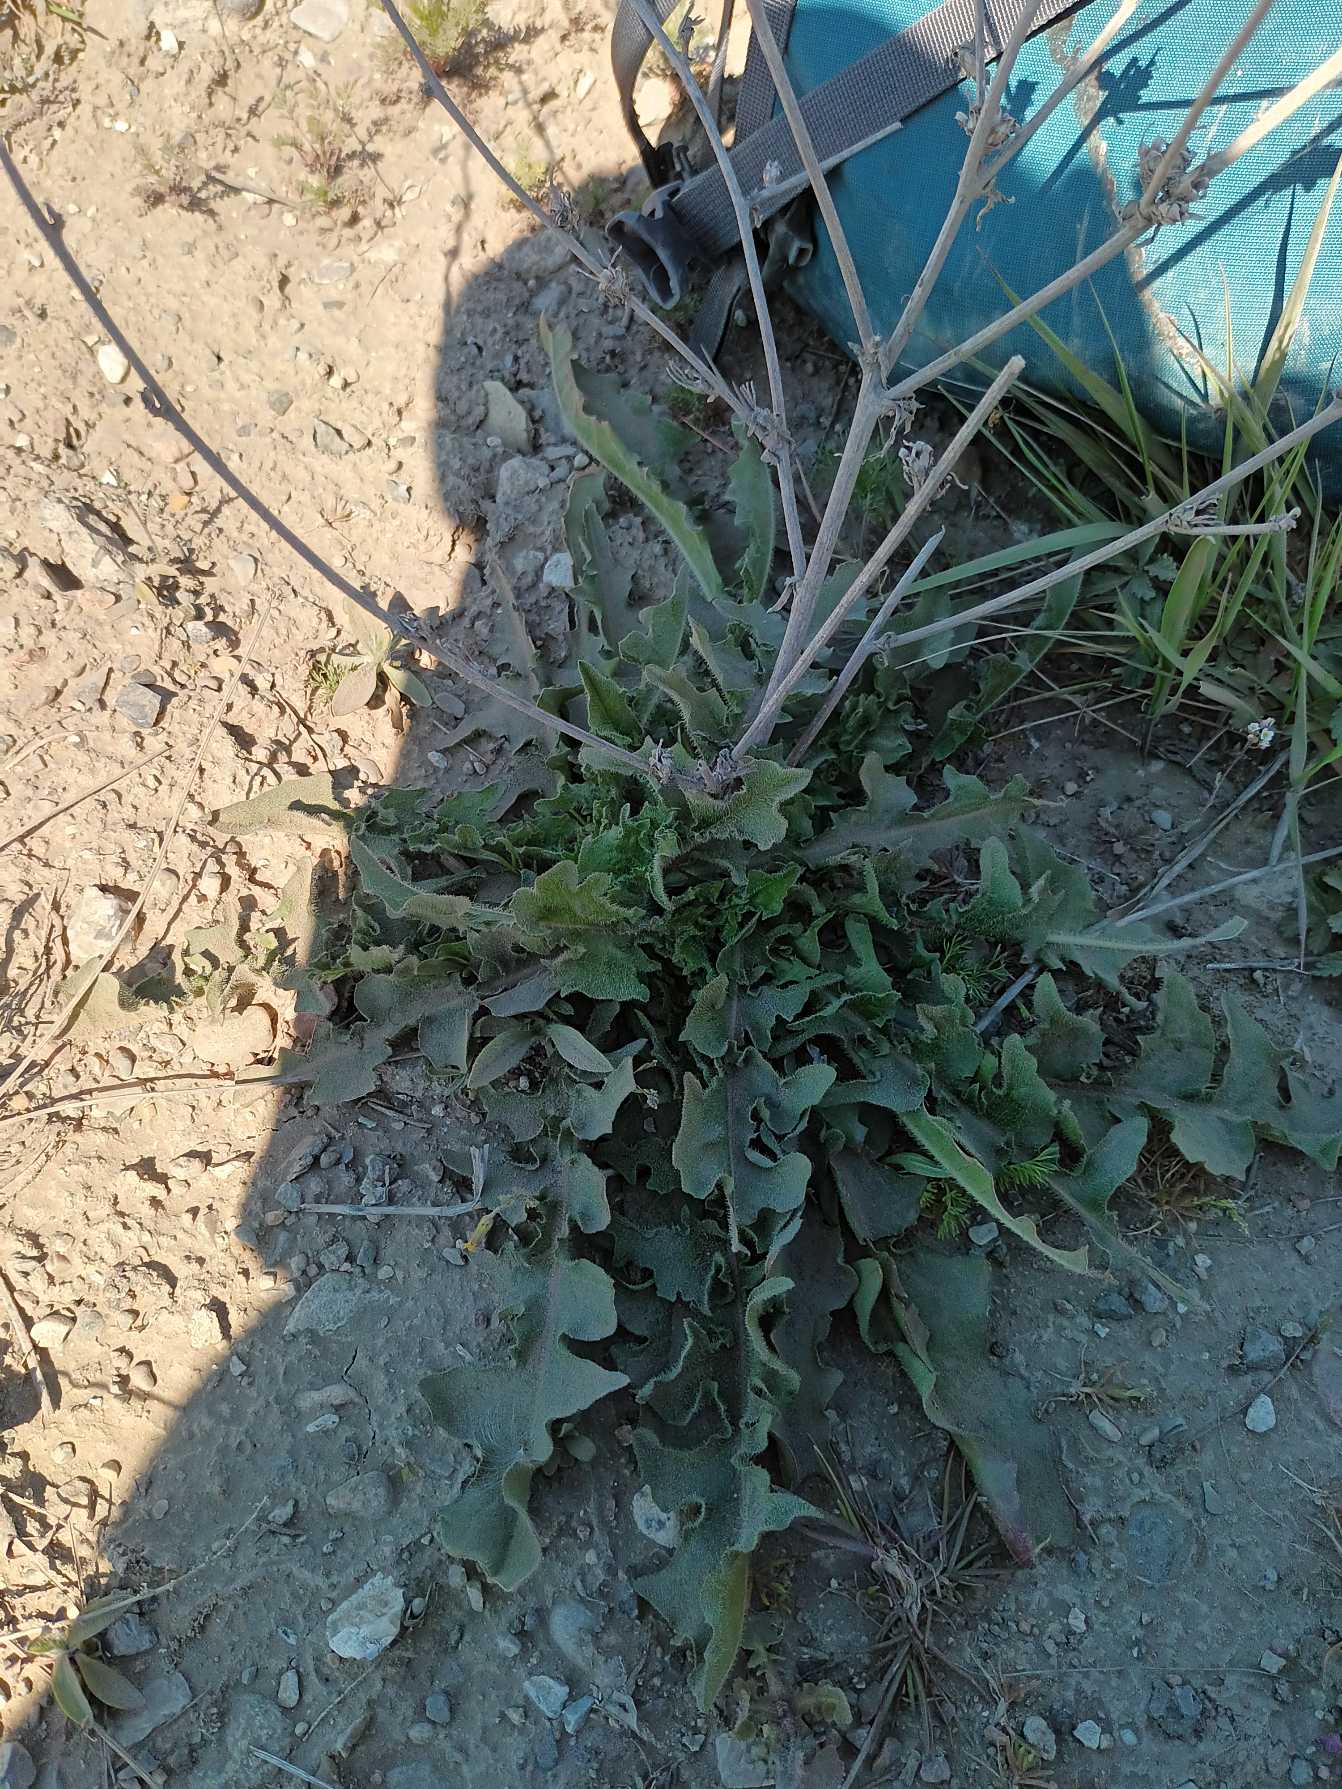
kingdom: Plantae
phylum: Tracheophyta
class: Magnoliopsida
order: Asterales
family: Asteraceae
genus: Cichorium
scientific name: Cichorium intybus
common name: Cikorie
